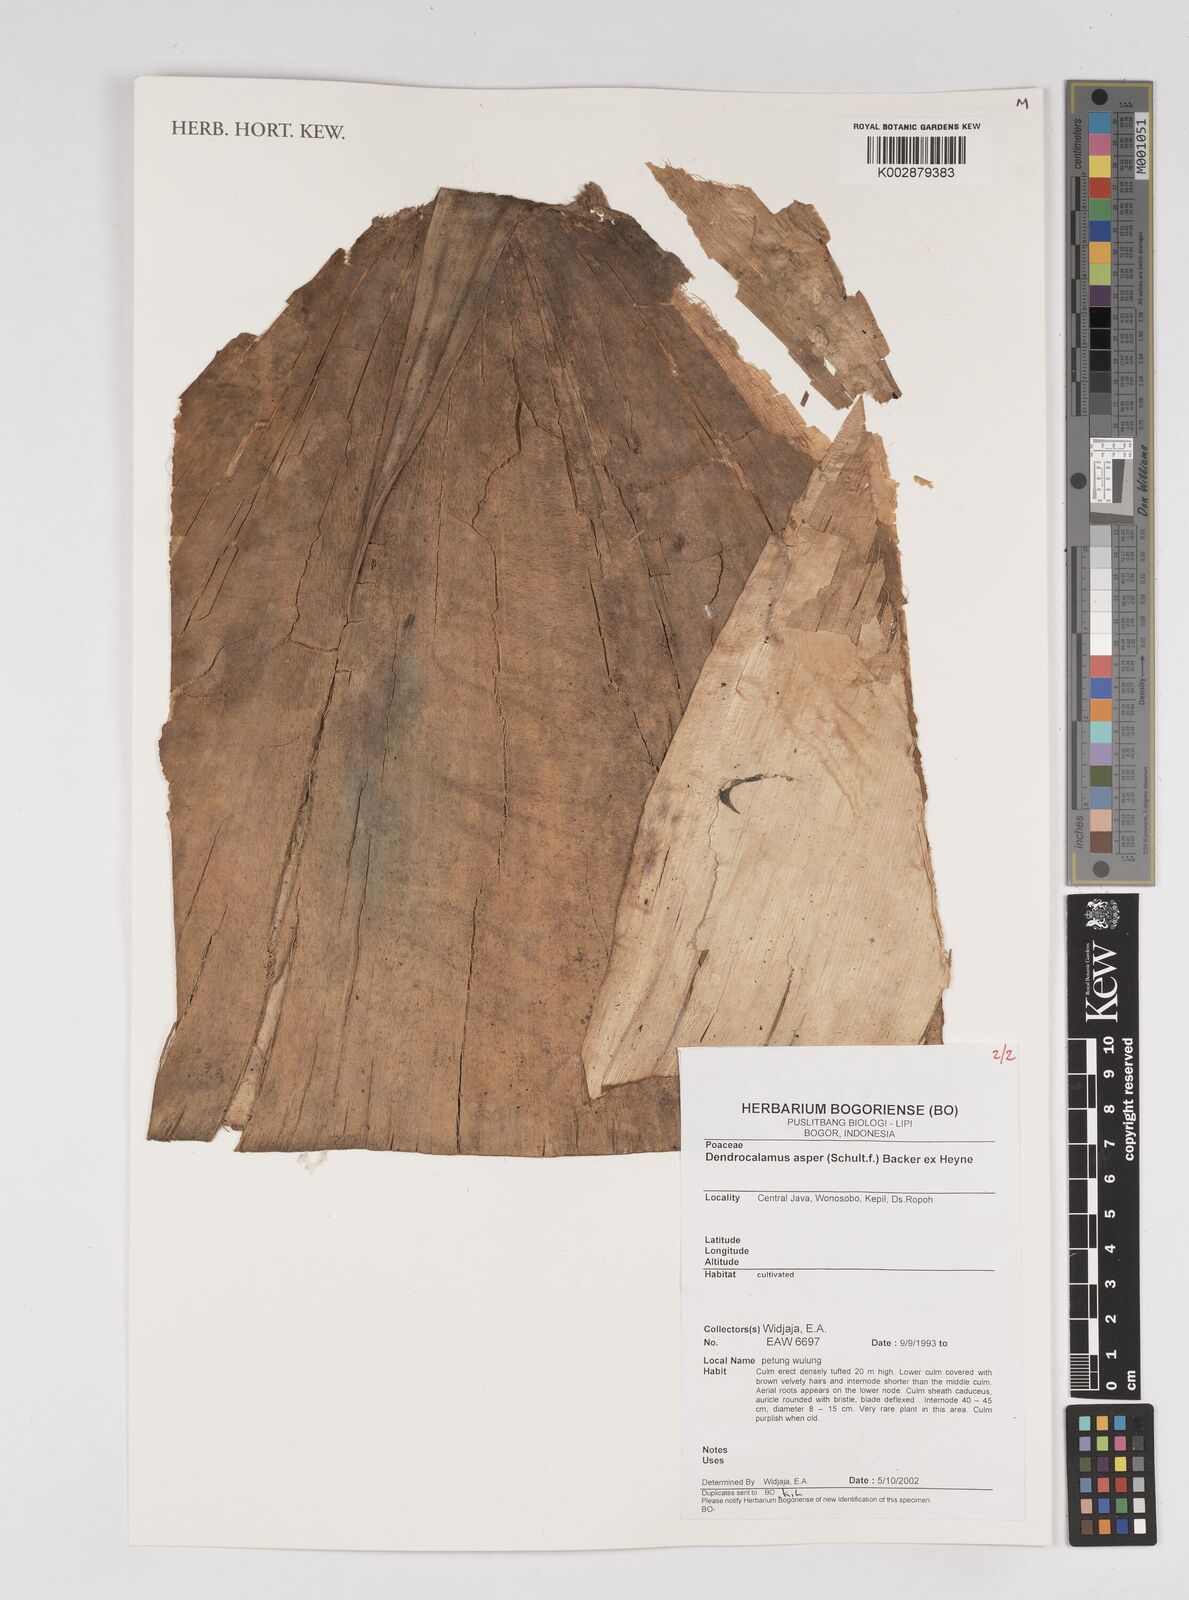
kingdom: Plantae
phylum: Tracheophyta
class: Liliopsida
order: Poales
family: Poaceae
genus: Dendrocalamus
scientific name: Dendrocalamus asper
